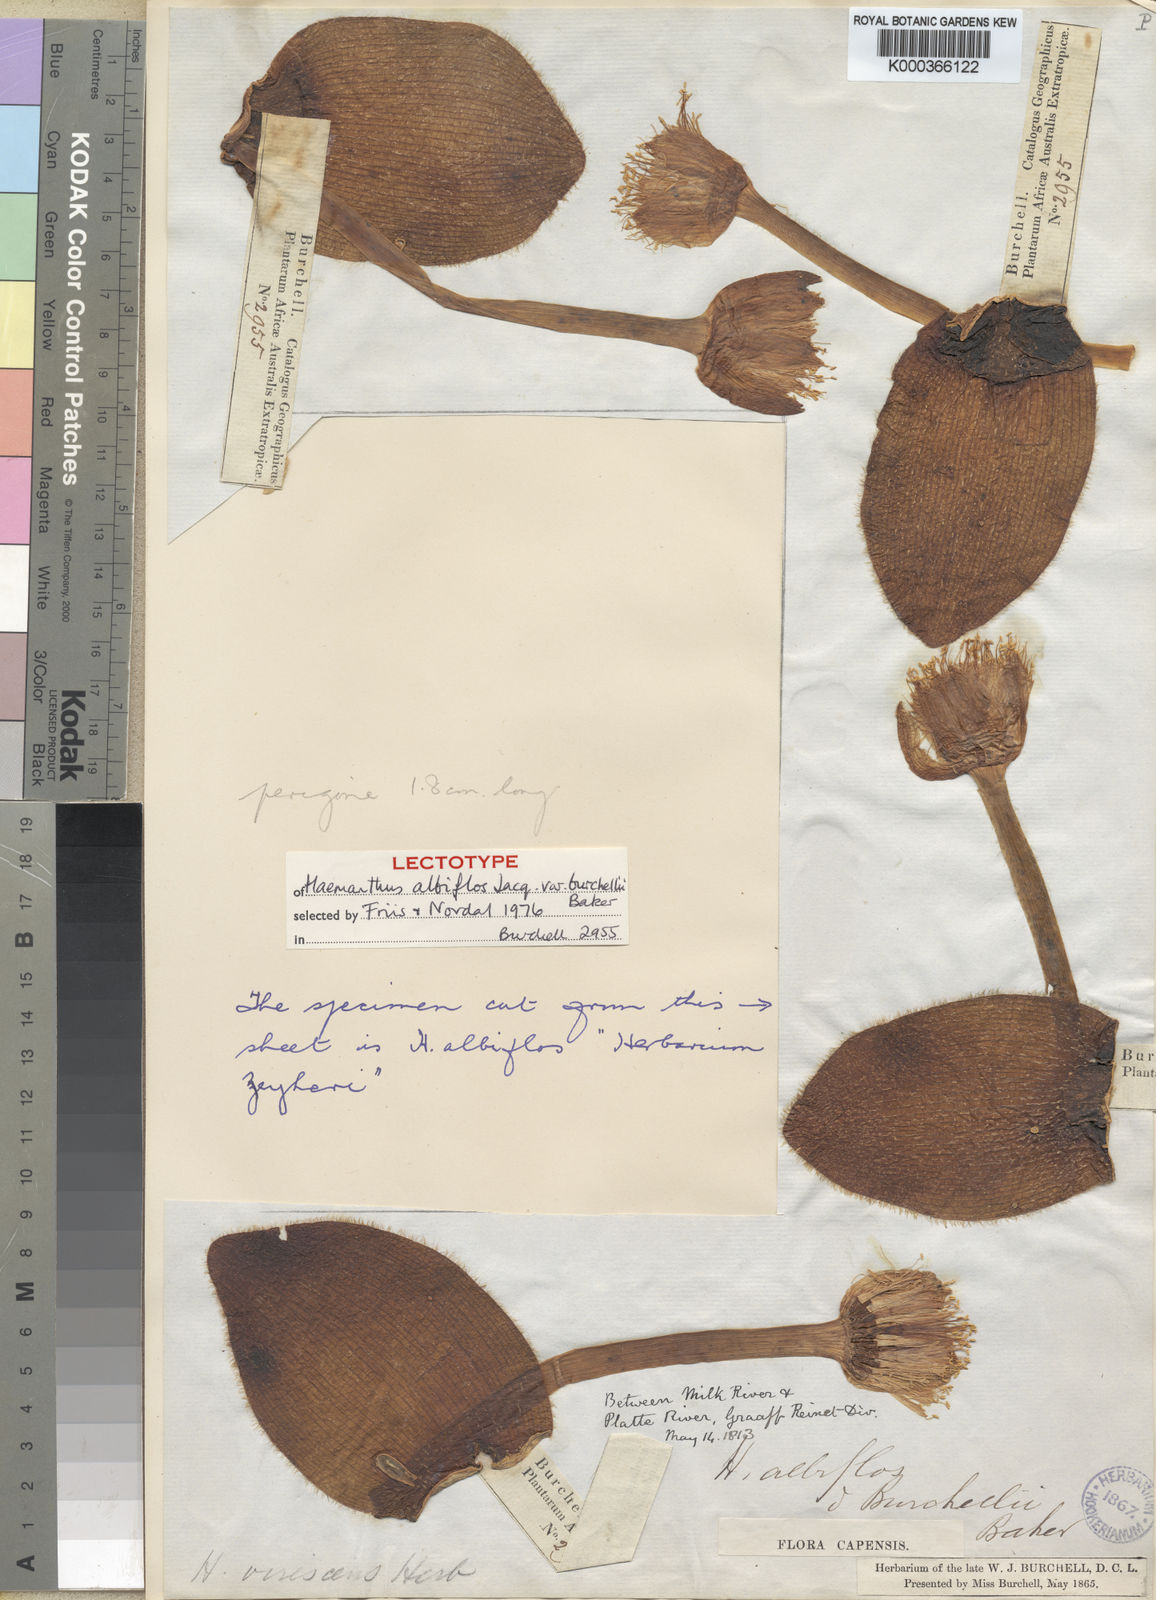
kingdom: Plantae
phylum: Tracheophyta
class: Liliopsida
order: Asparagales
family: Amaryllidaceae
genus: Haemanthus
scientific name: Haemanthus albiflos
